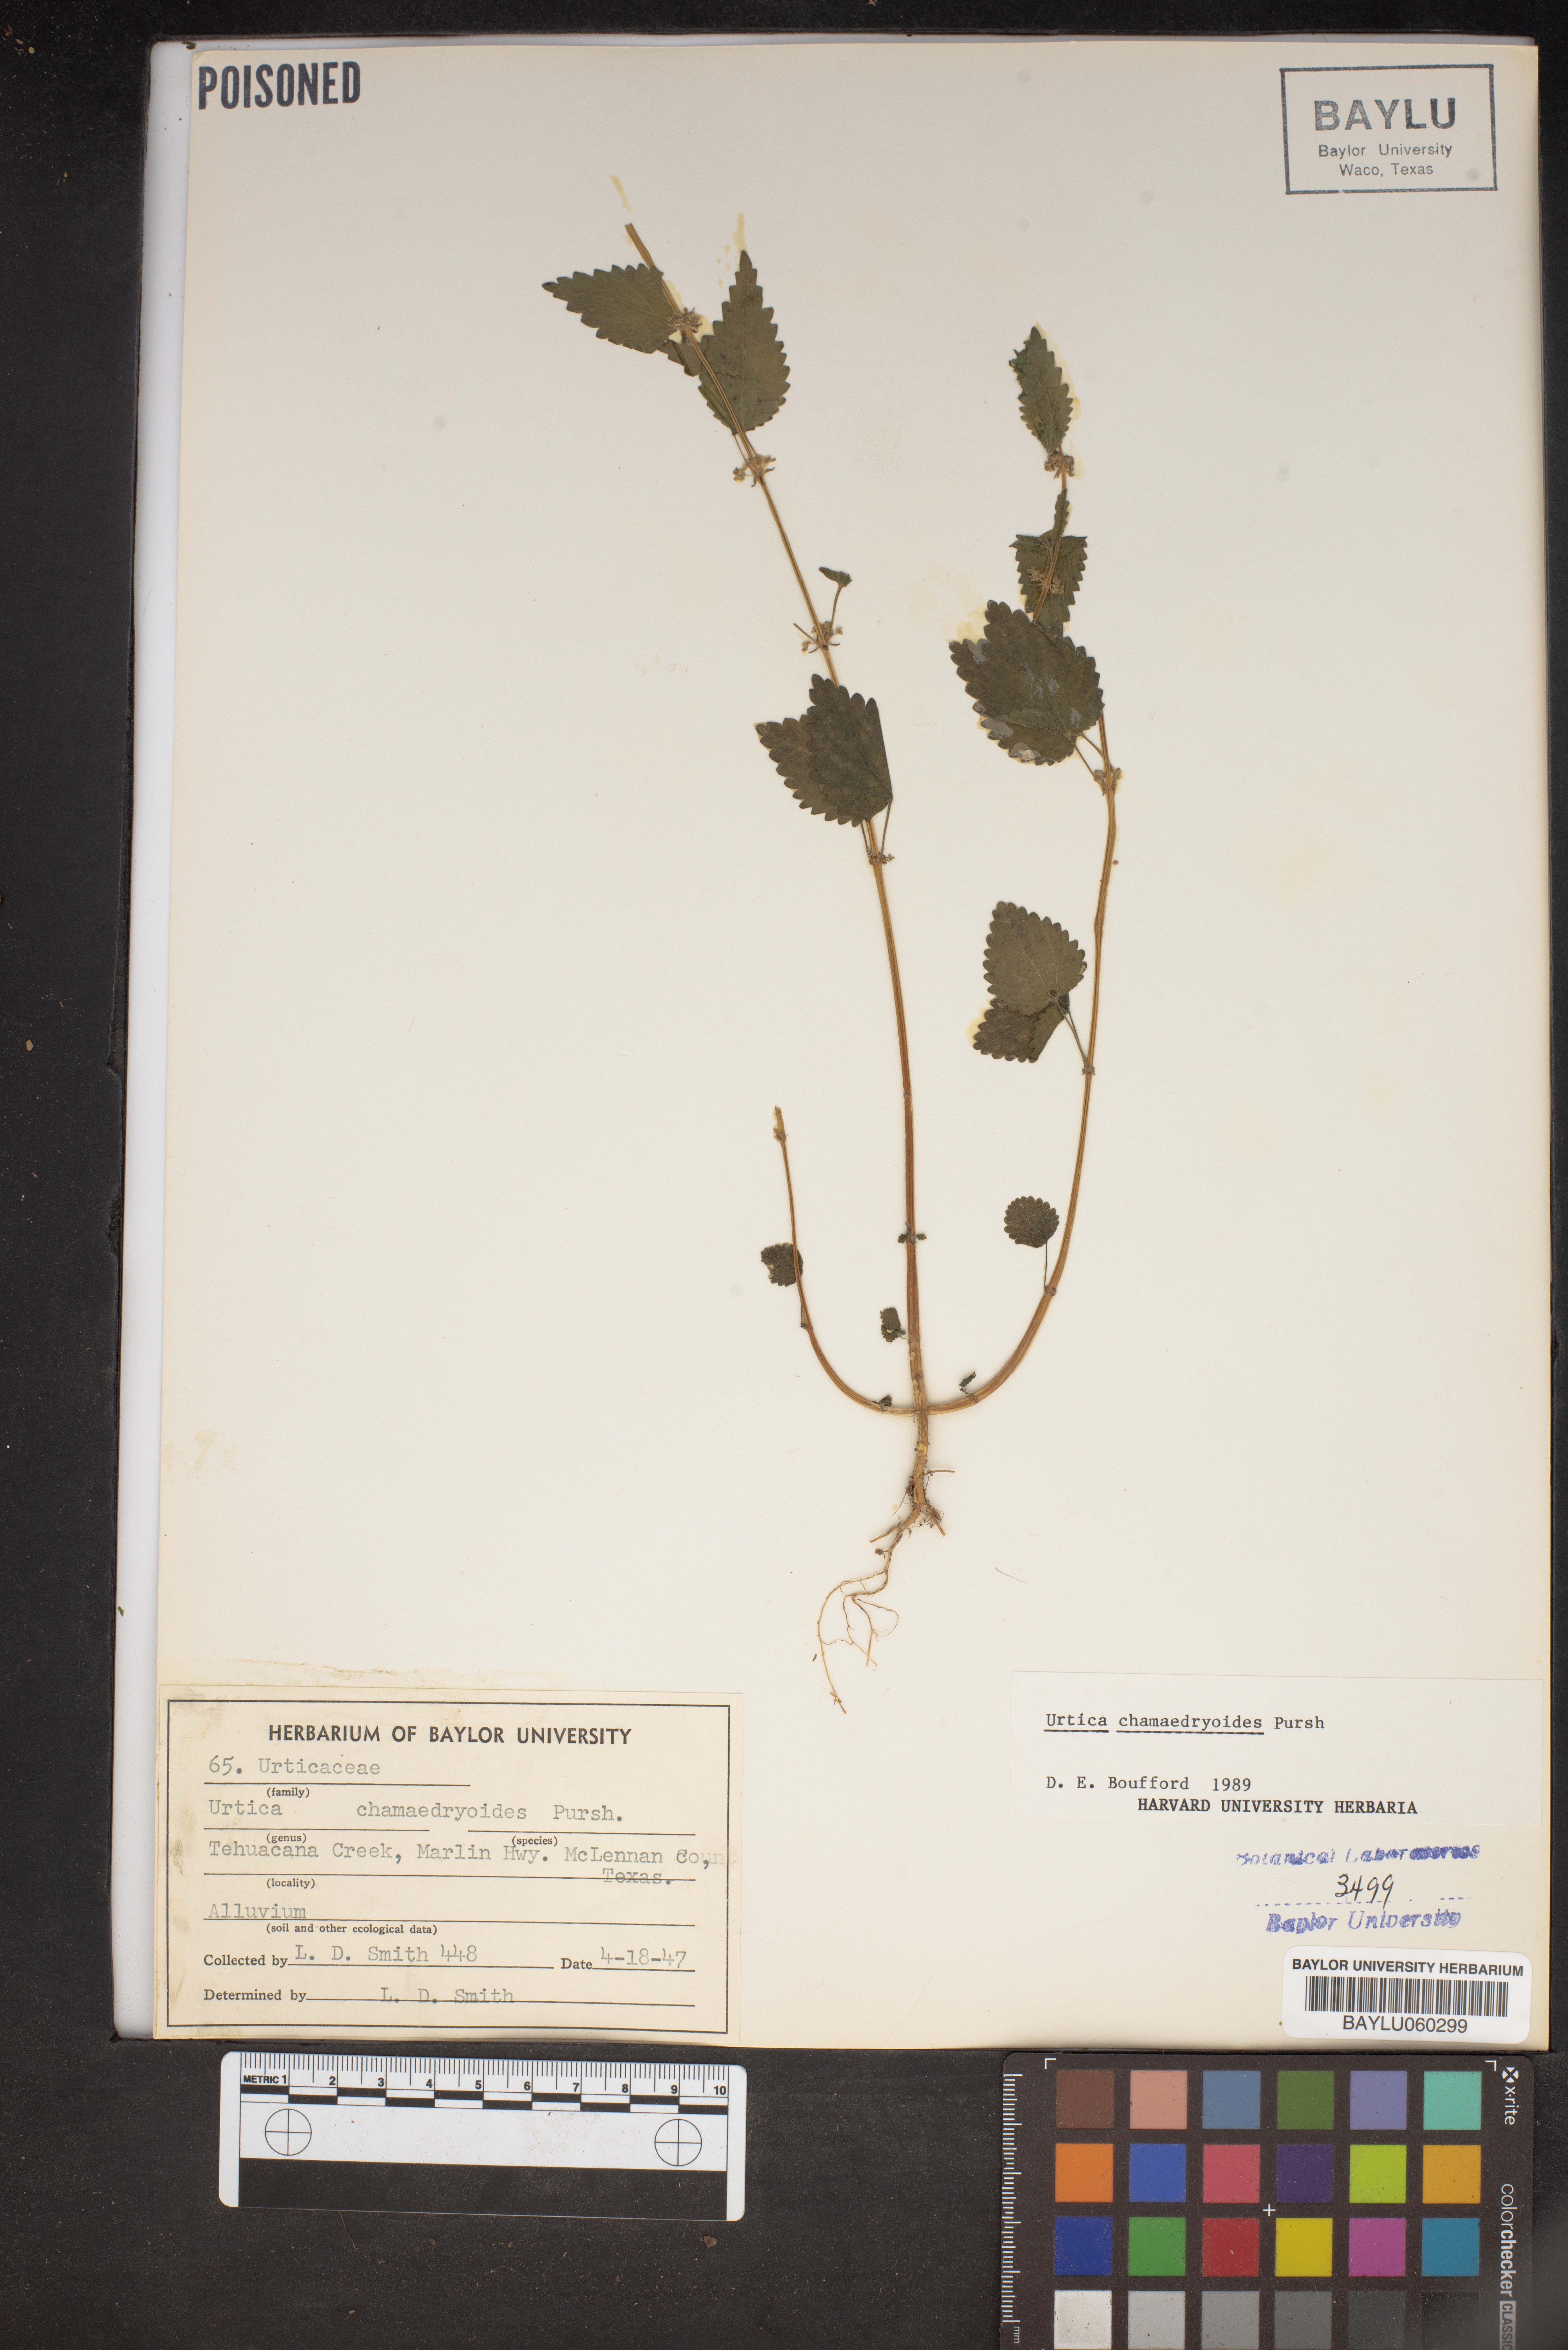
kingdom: Plantae
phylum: Tracheophyta
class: Magnoliopsida
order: Rosales
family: Urticaceae
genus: Urtica
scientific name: Urtica chamaedryoides
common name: Heart-leaf nettle
